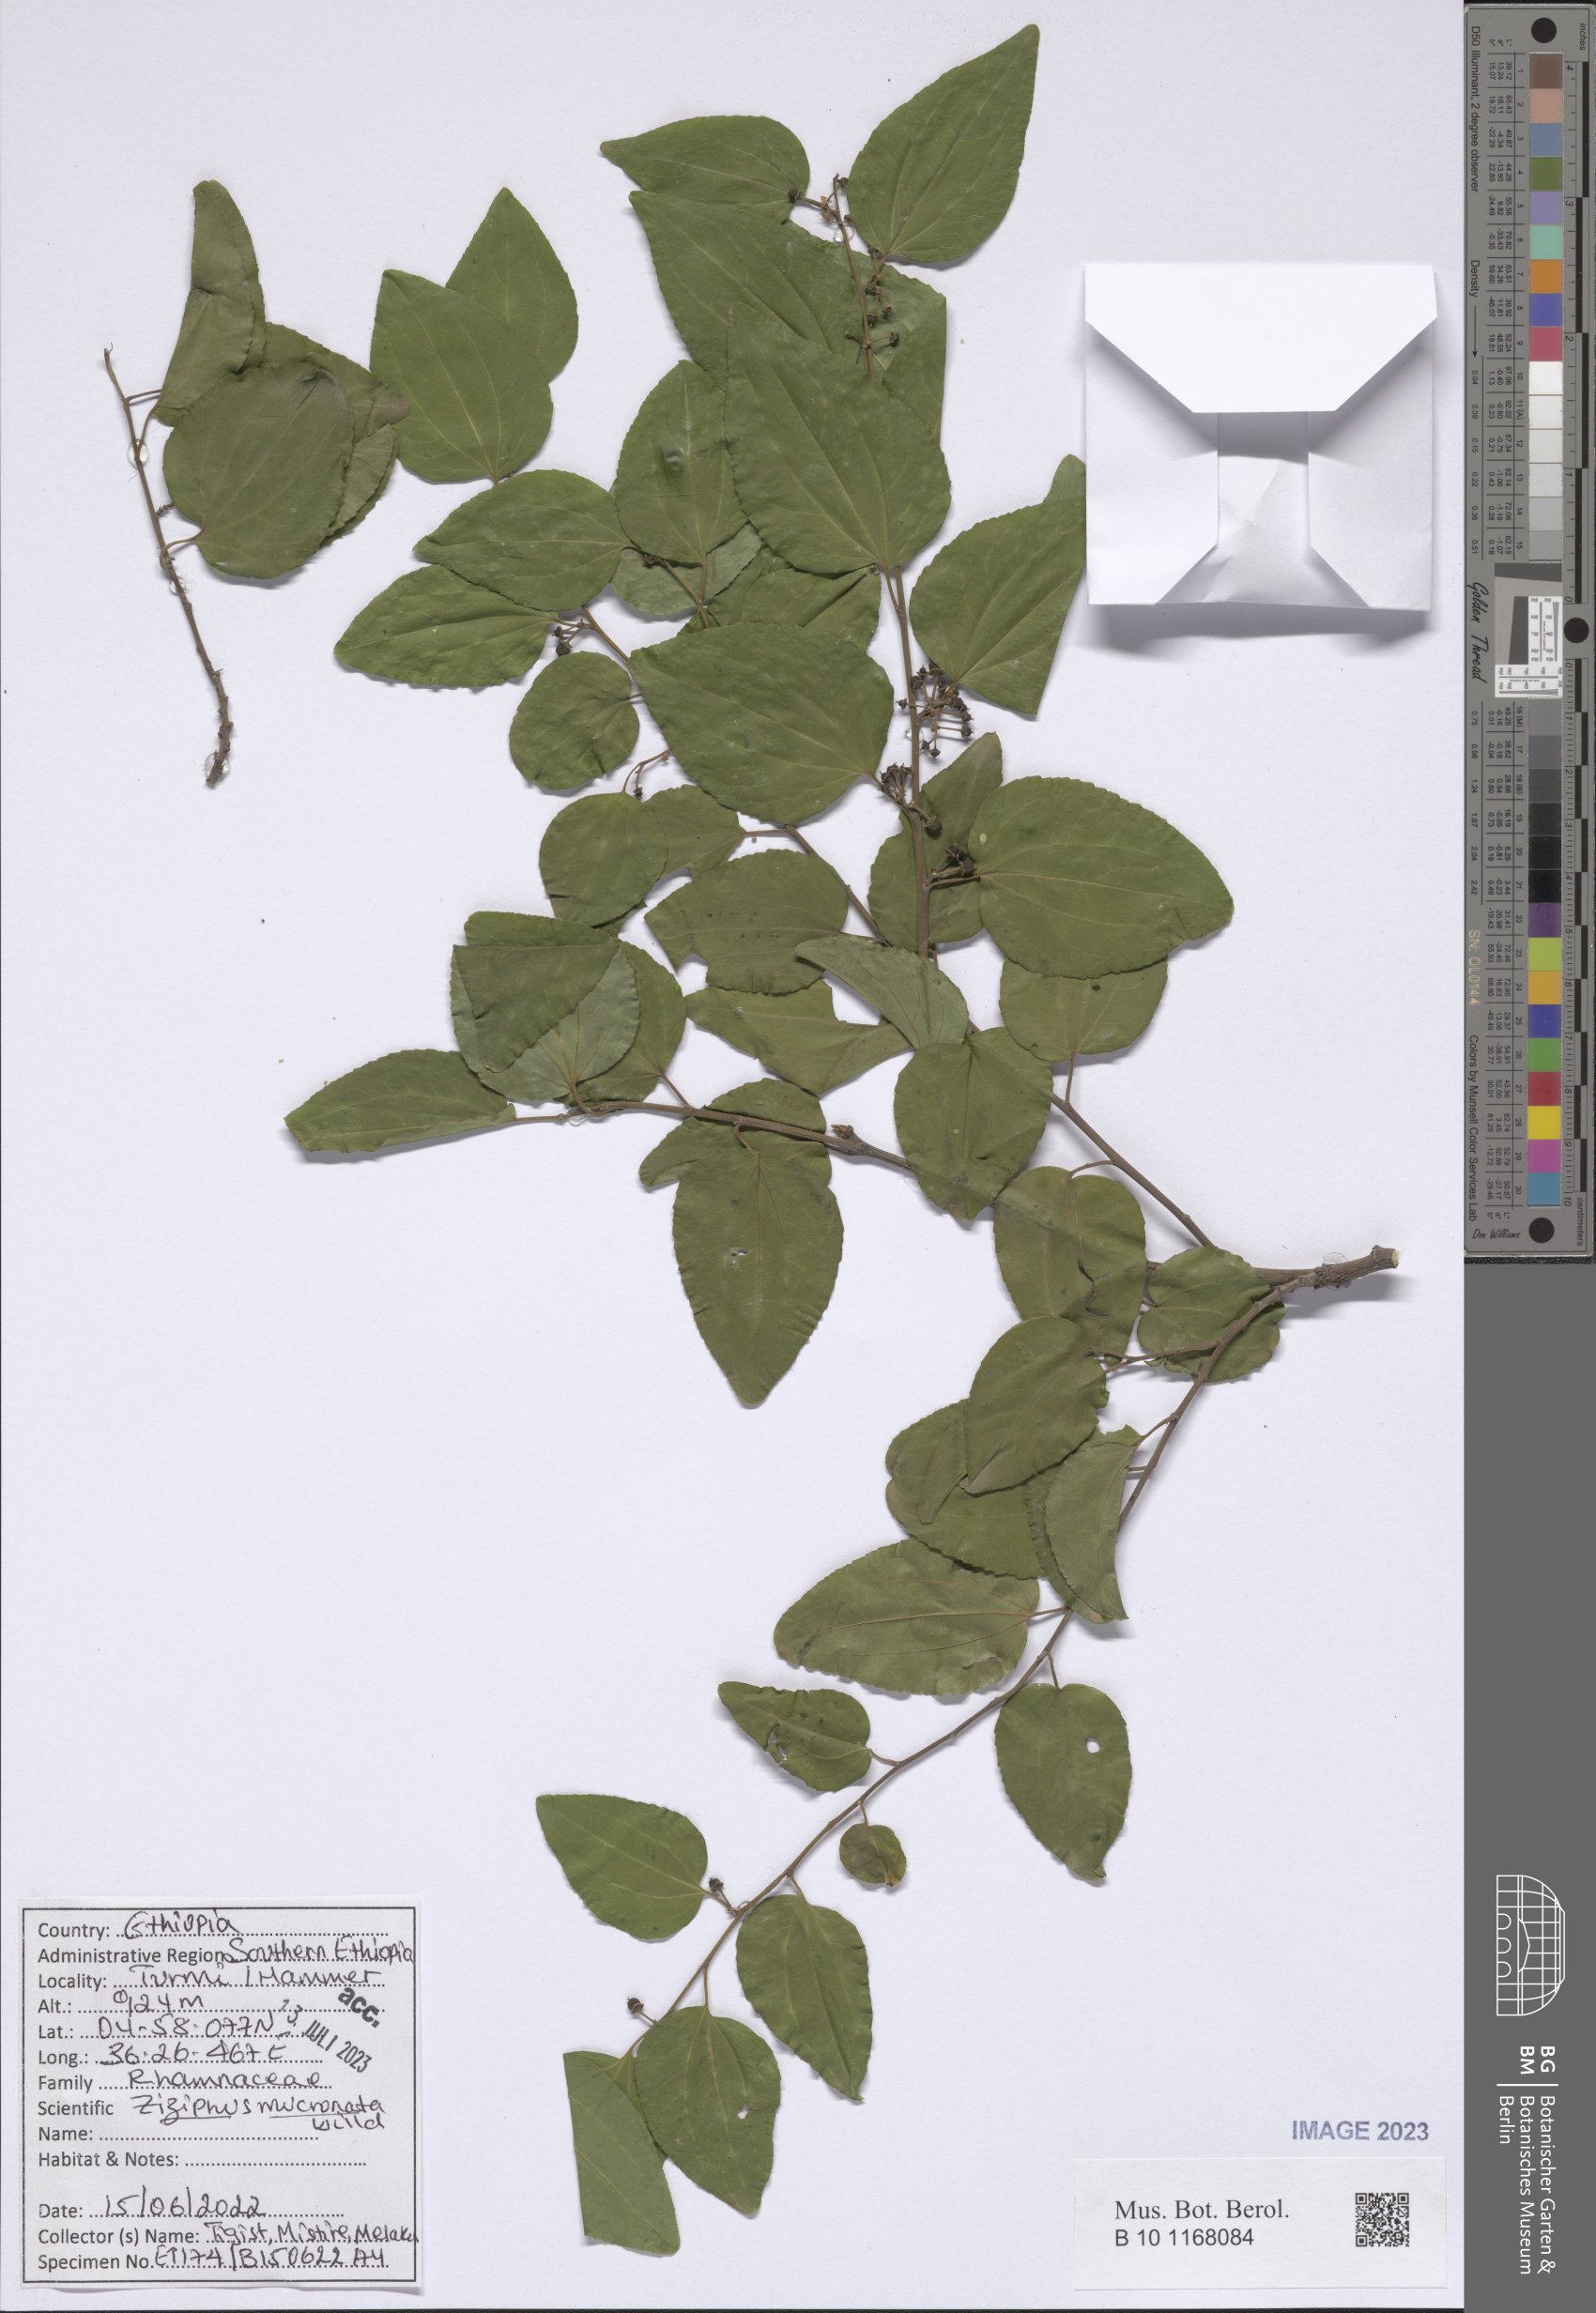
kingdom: Plantae
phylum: Tracheophyta
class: Magnoliopsida
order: Rosales
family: Rhamnaceae
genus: Ziziphus
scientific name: Ziziphus mucronata
